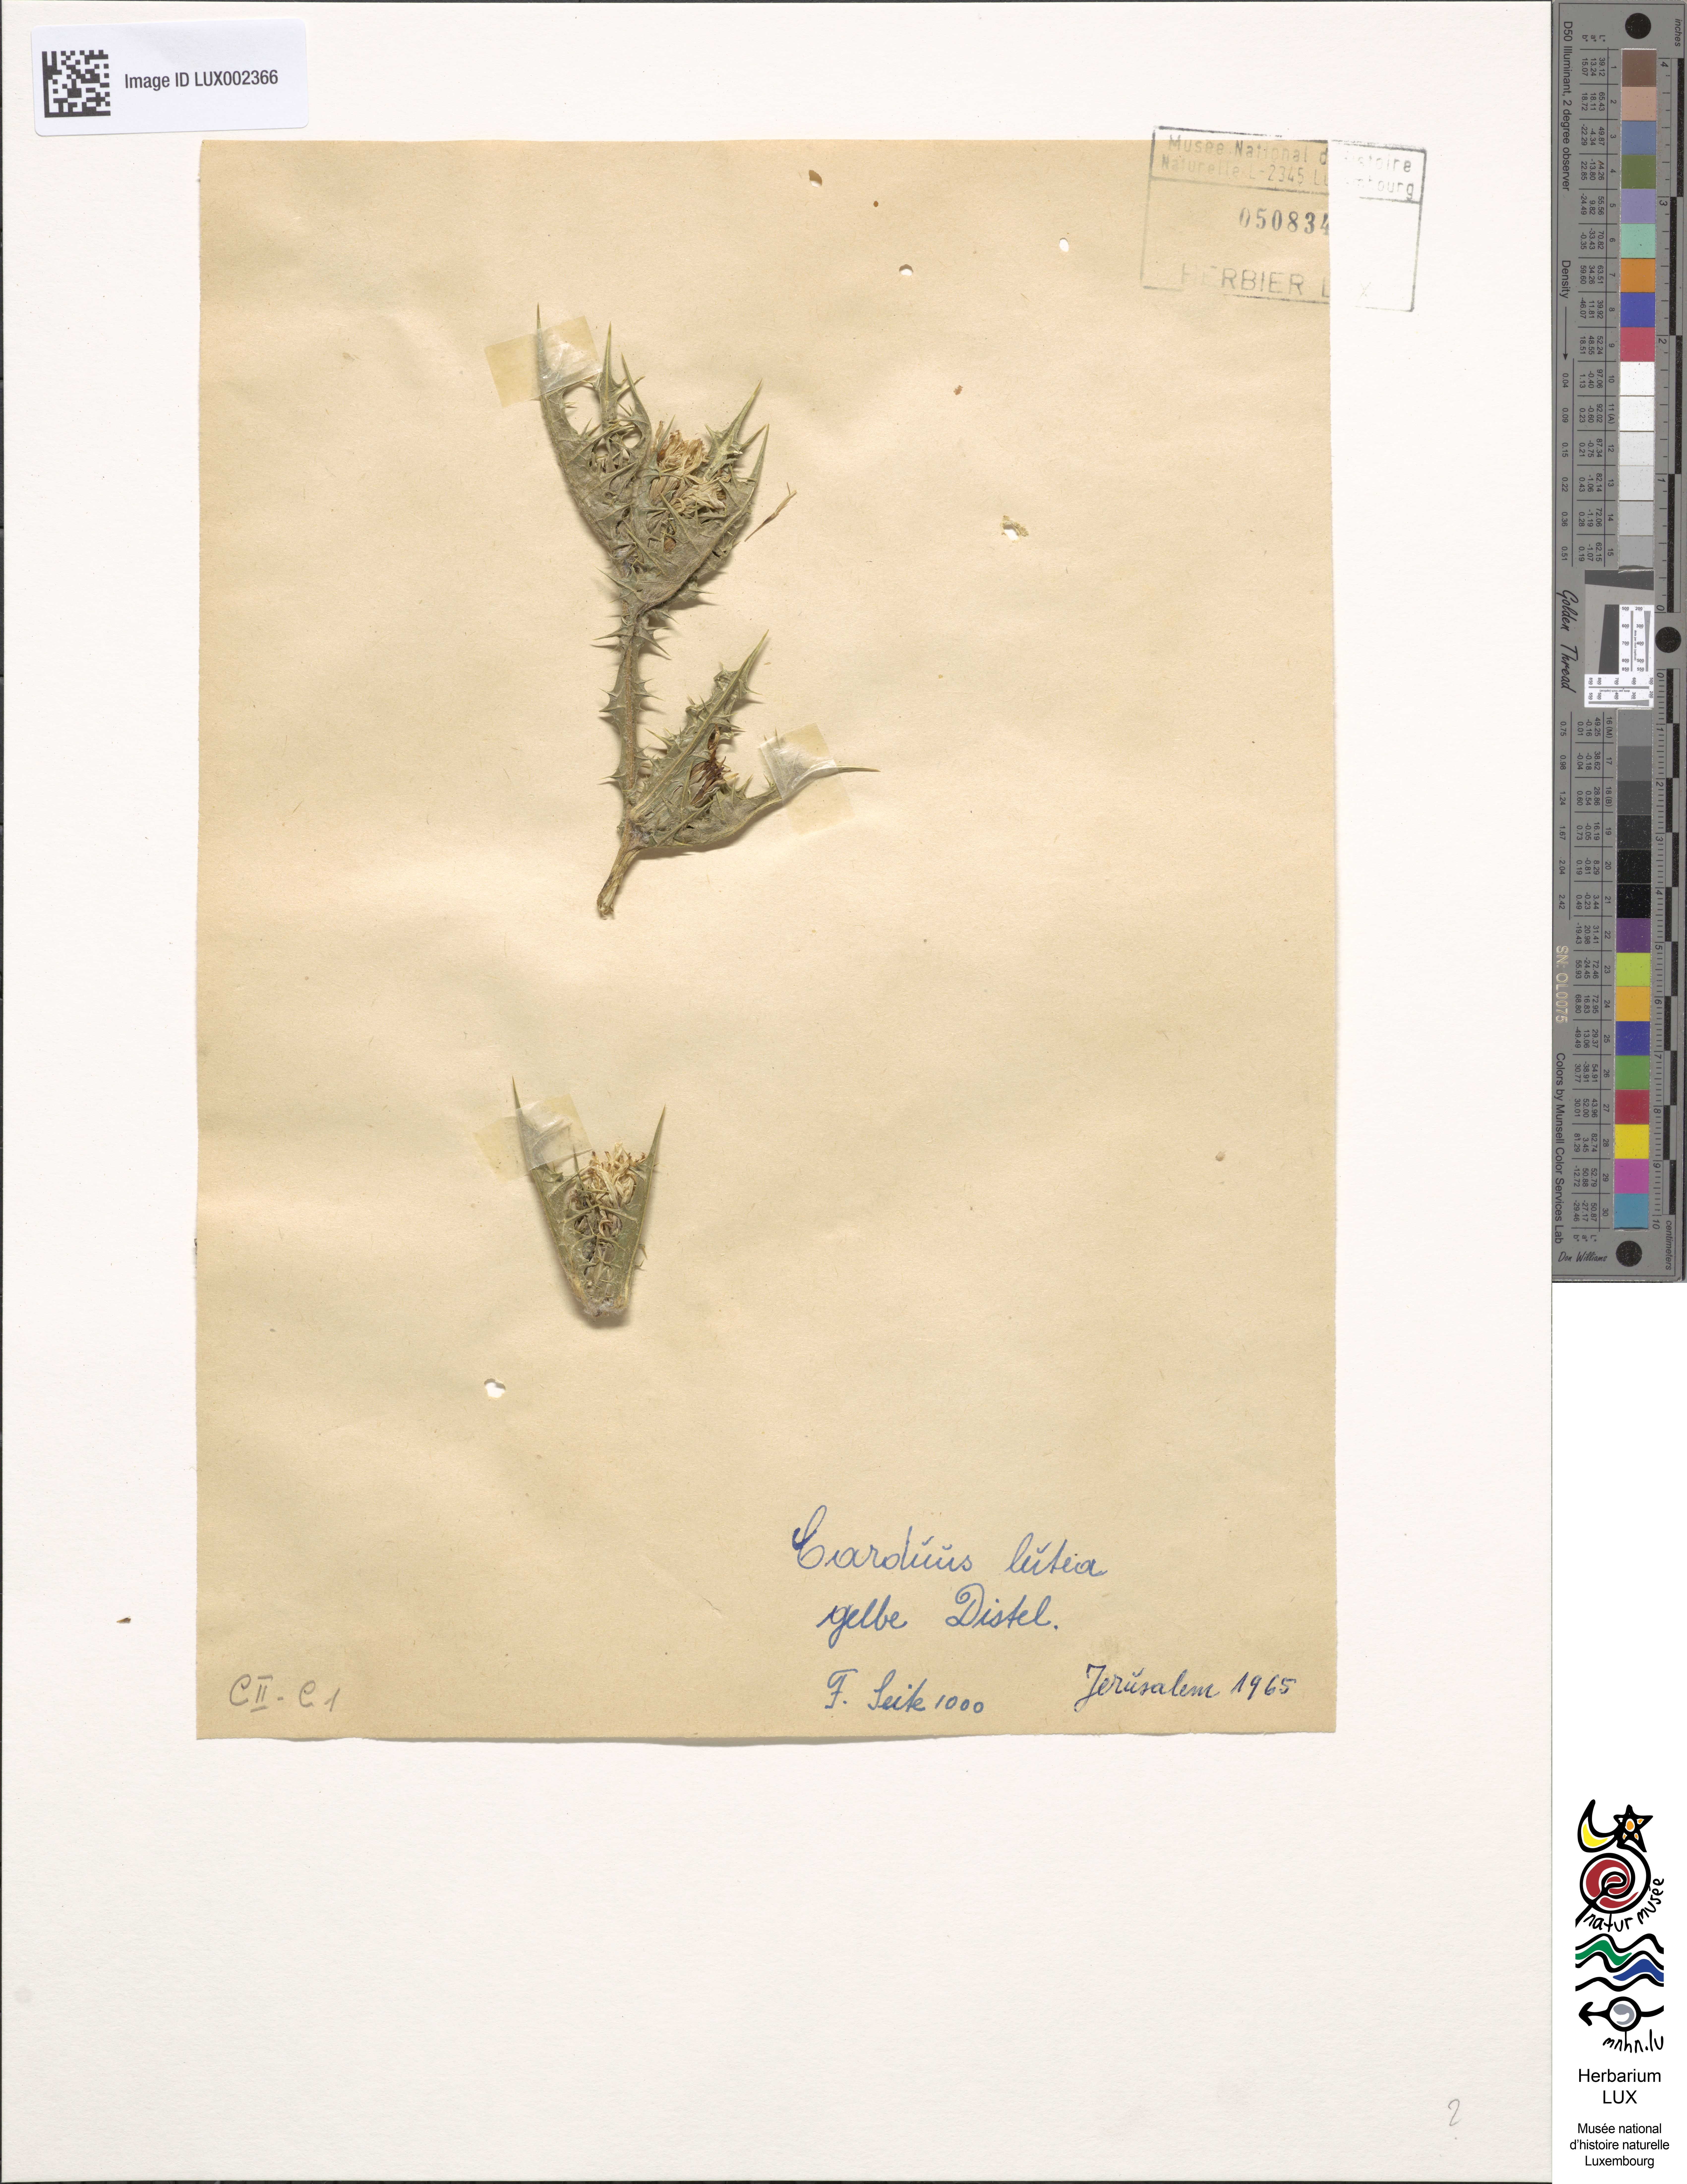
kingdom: Plantae
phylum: Tracheophyta
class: Magnoliopsida
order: Asterales
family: Asteraceae
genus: Carduus
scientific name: Carduus
